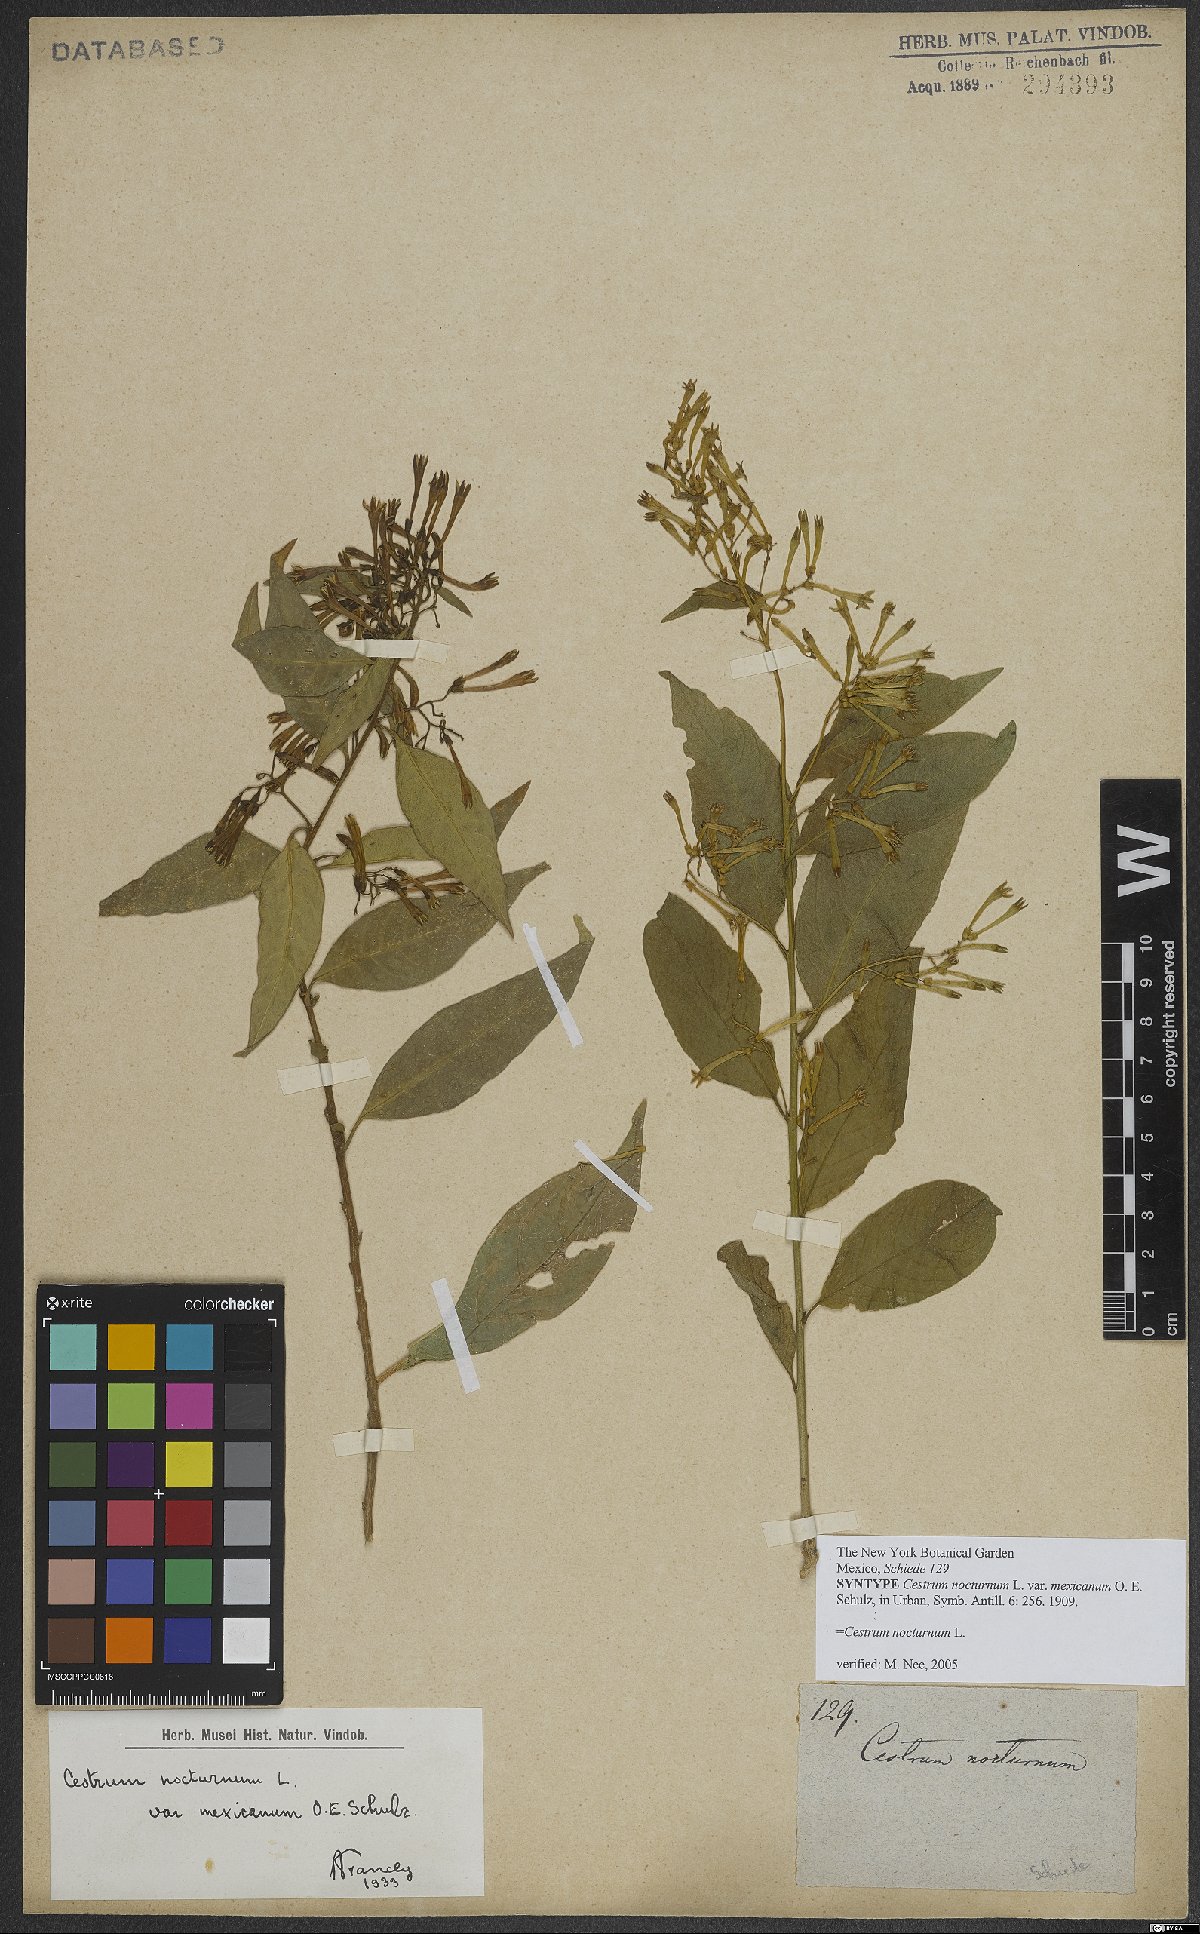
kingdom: Plantae
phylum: Tracheophyta
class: Magnoliopsida
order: Solanales
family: Solanaceae
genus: Cestrum
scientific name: Cestrum nocturnum
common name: Night jessamine
